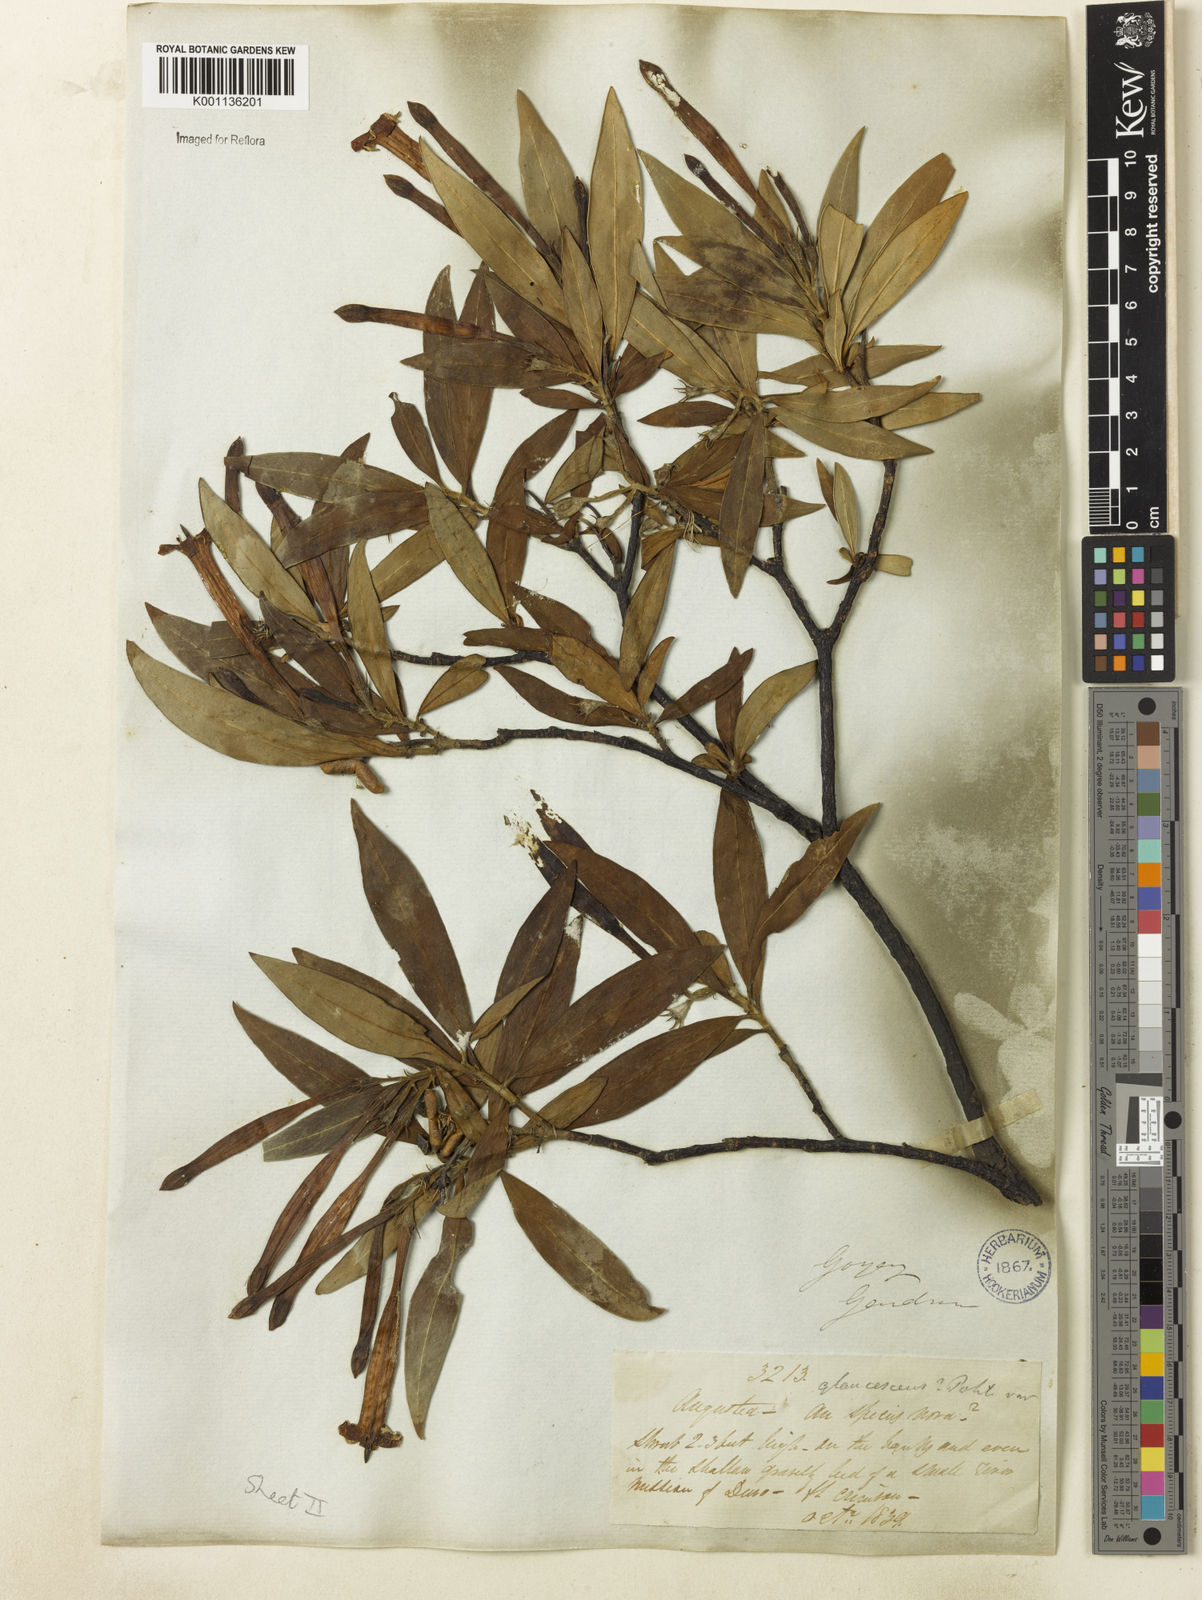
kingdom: Plantae
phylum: Tracheophyta
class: Magnoliopsida
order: Gentianales
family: Rubiaceae
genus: Augusta
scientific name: Augusta longifolia
